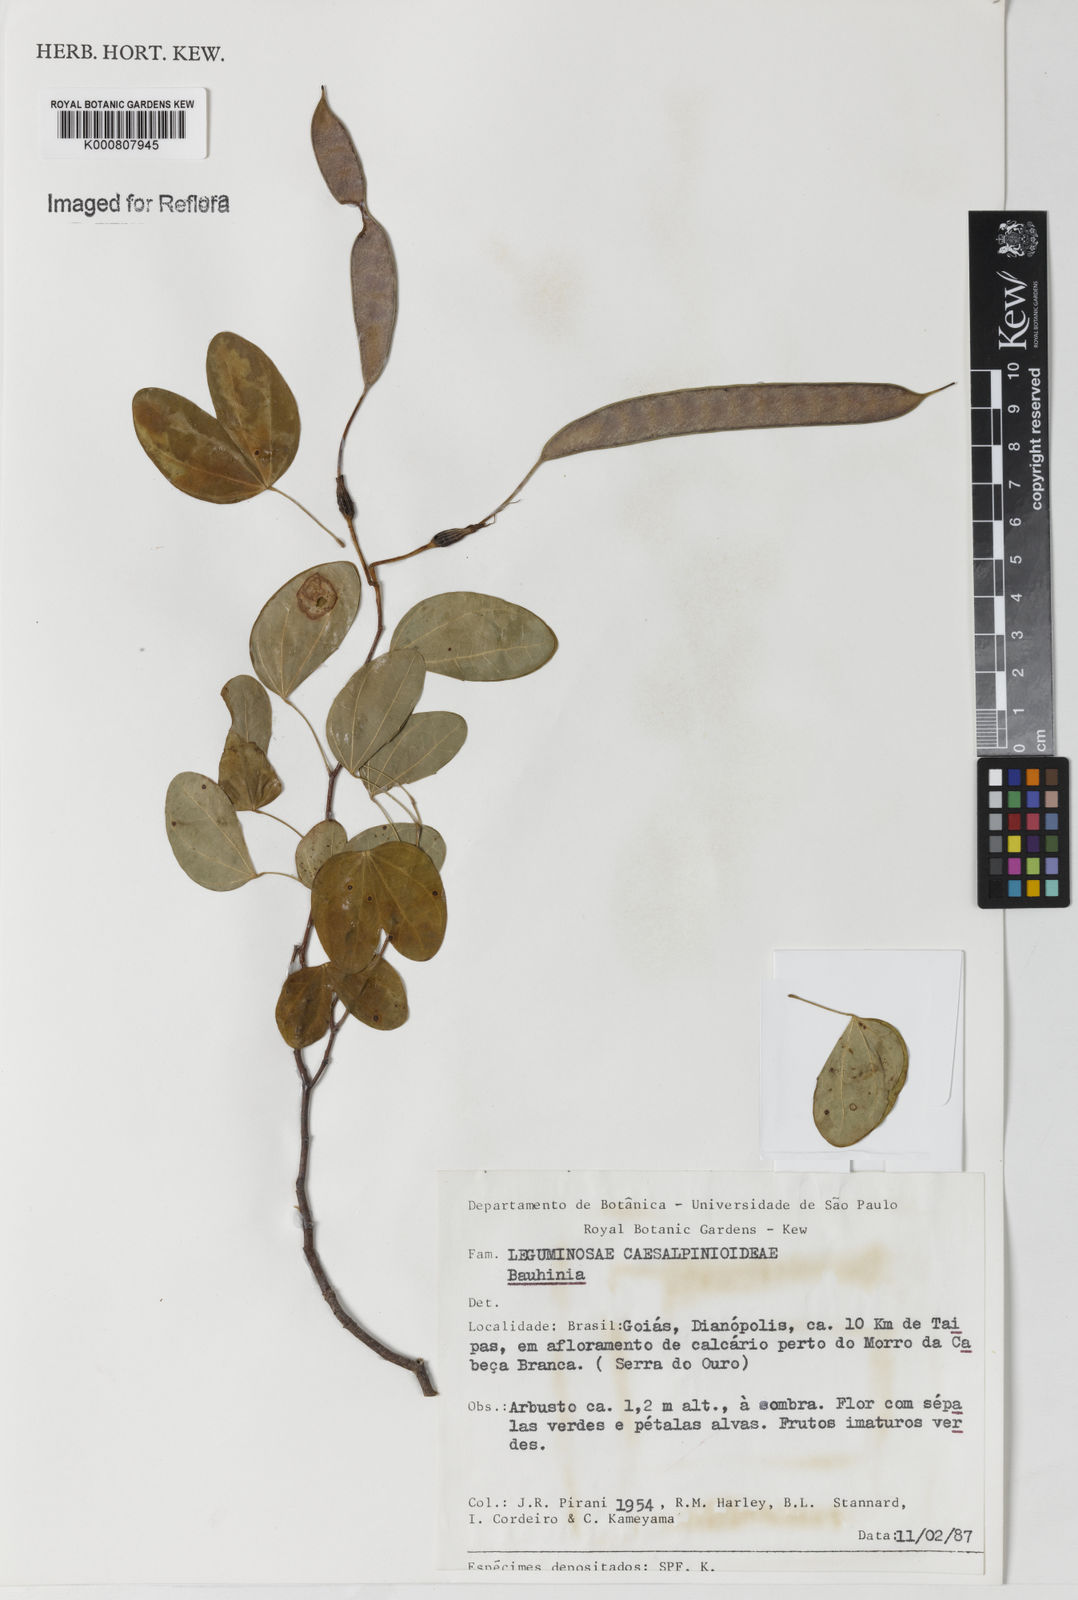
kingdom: Plantae
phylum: Tracheophyta
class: Magnoliopsida
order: Fabales
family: Fabaceae
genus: Bauhinia
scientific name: Bauhinia
